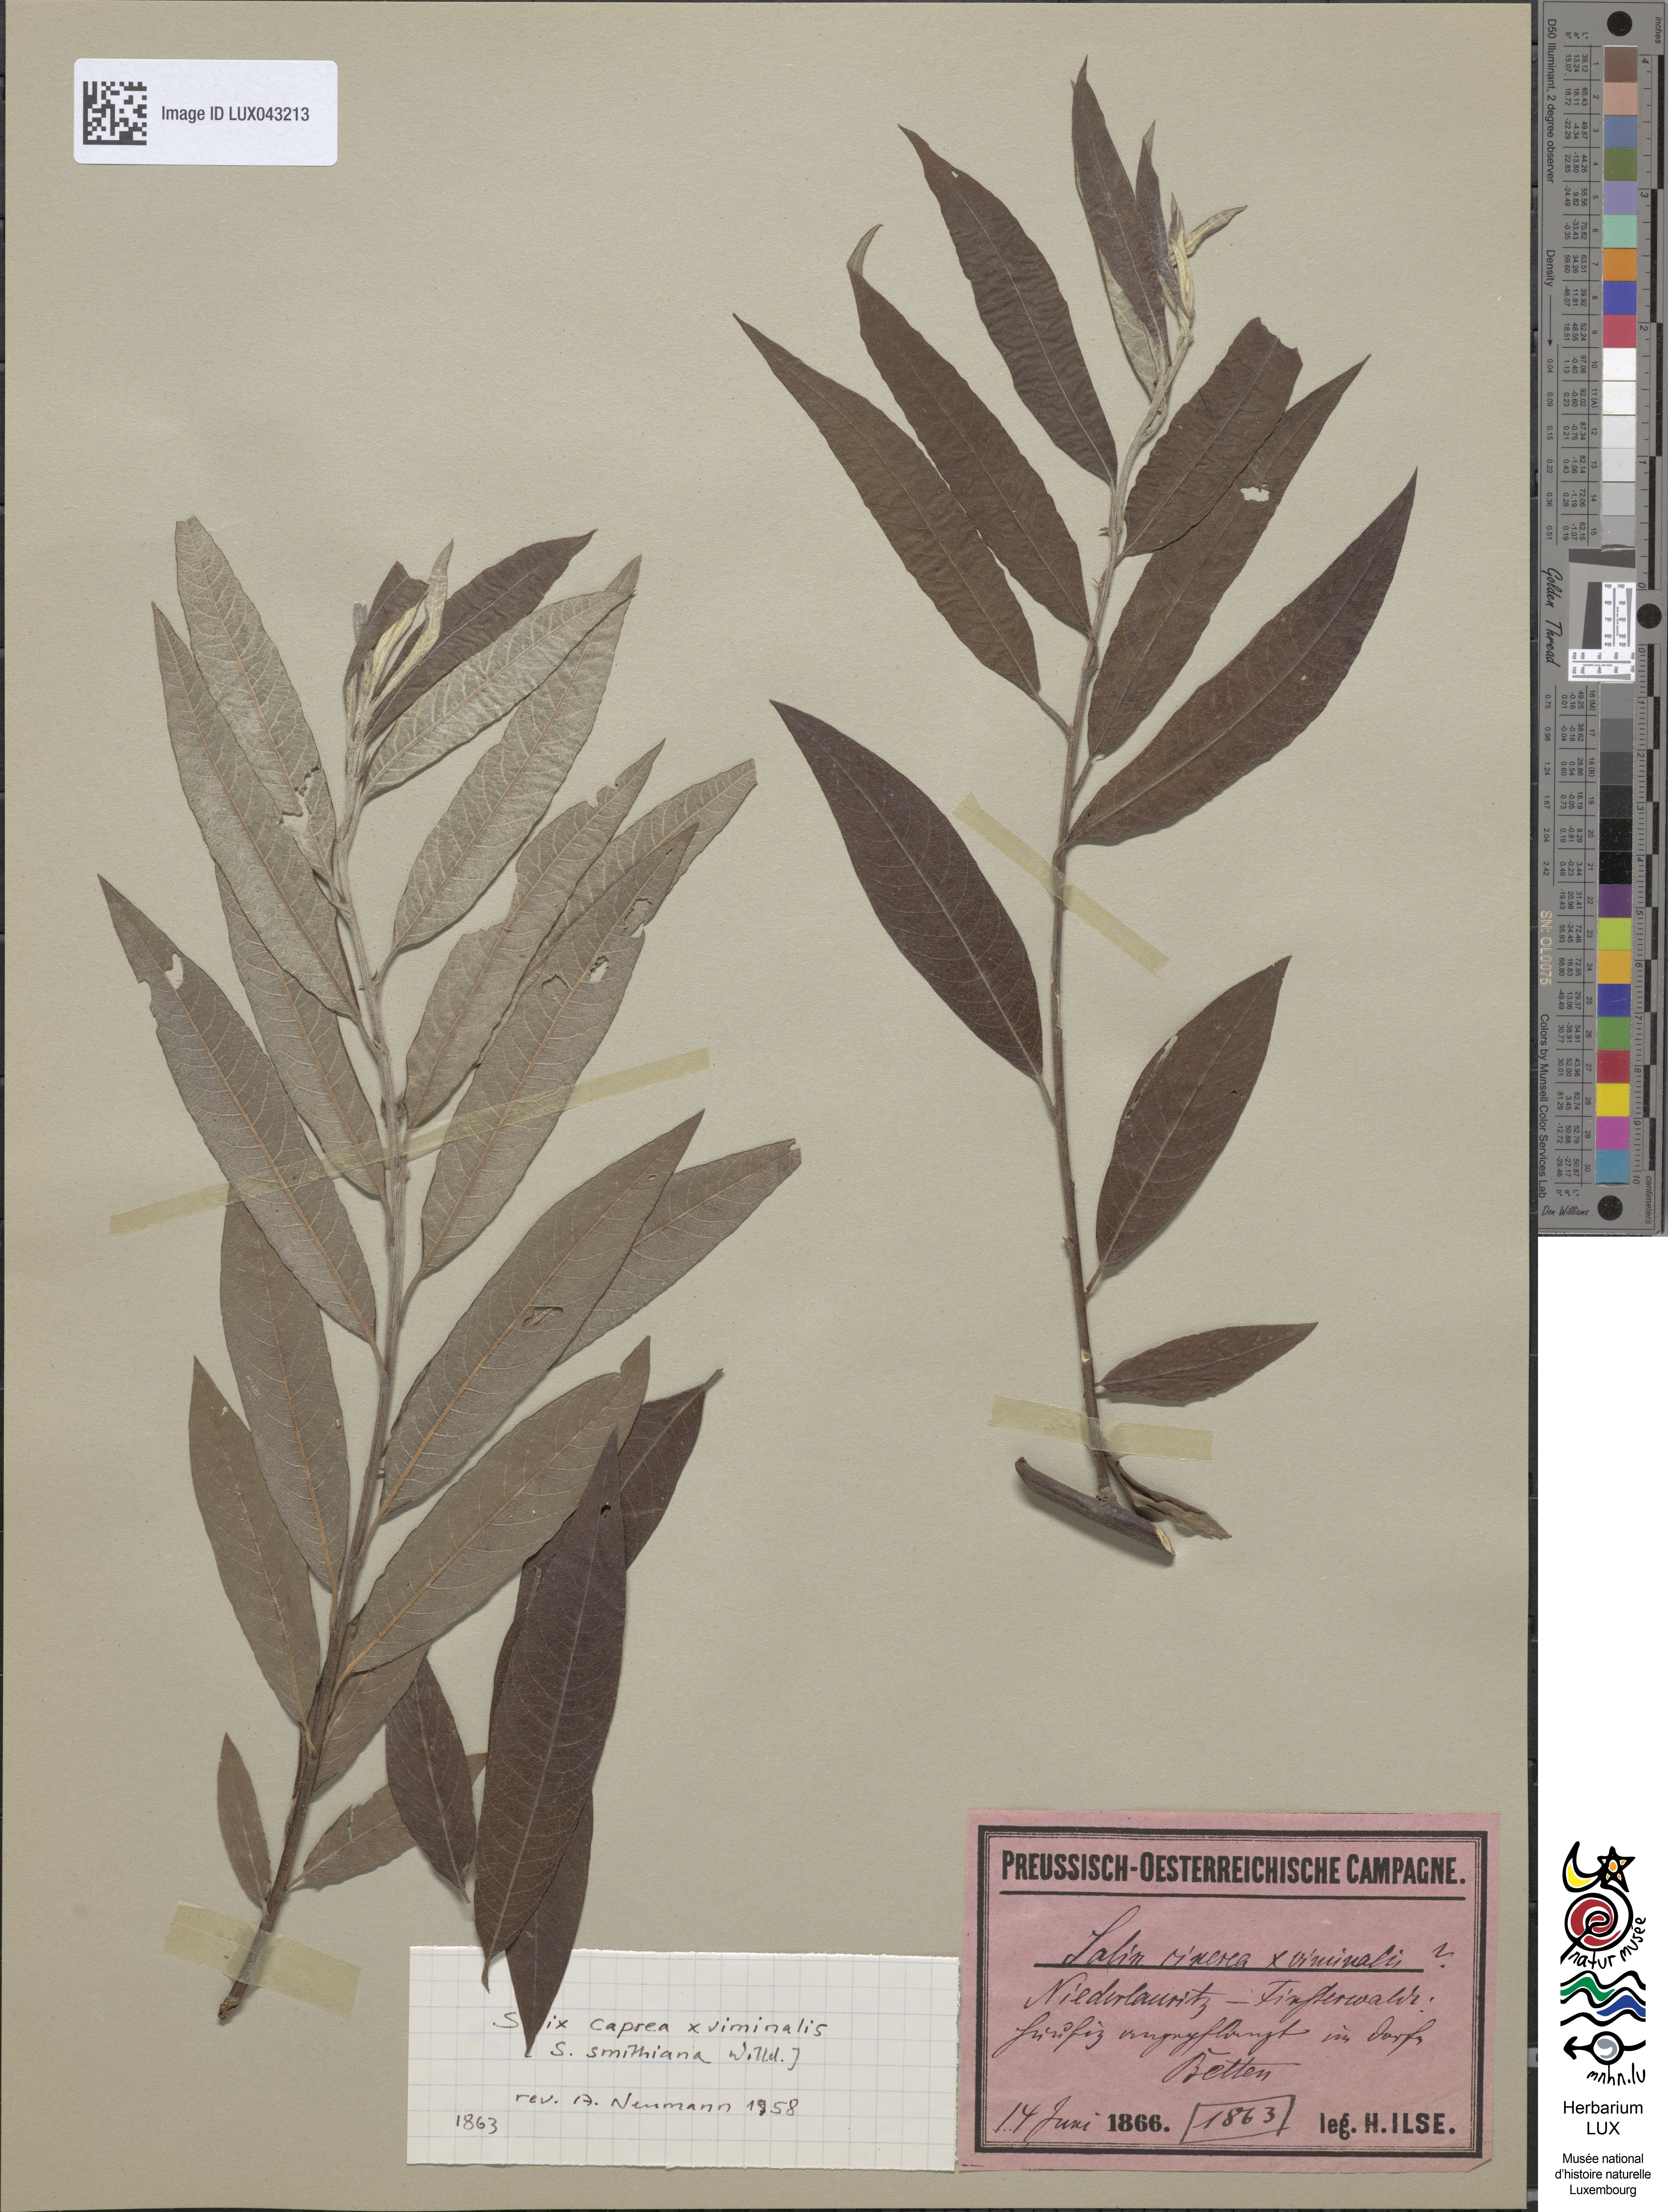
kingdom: Plantae
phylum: Tracheophyta
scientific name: Tracheophyta
